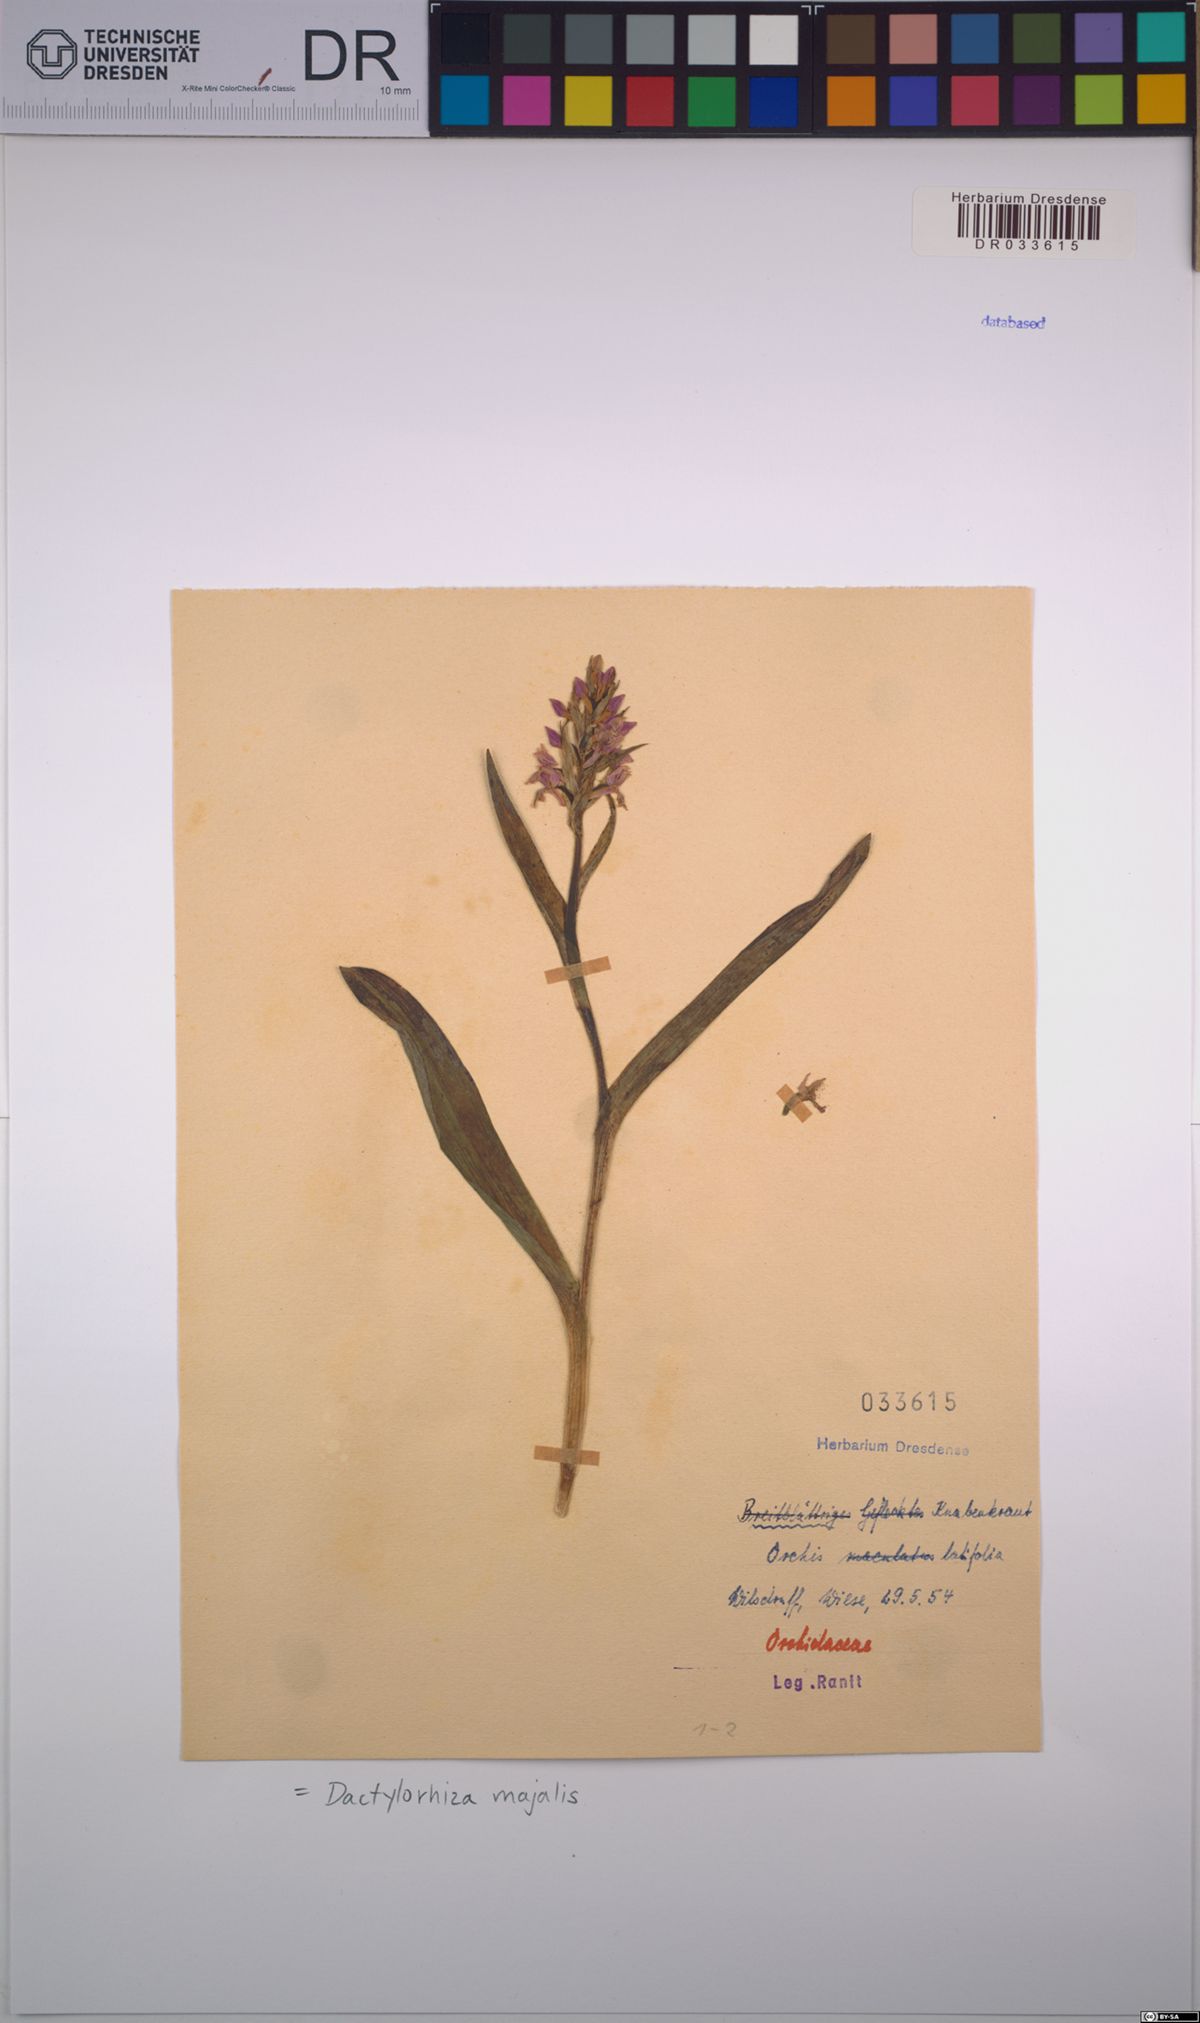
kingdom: Plantae
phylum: Tracheophyta
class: Liliopsida
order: Asparagales
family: Orchidaceae
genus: Dactylorhiza
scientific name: Dactylorhiza majalis
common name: Marsh orchid
